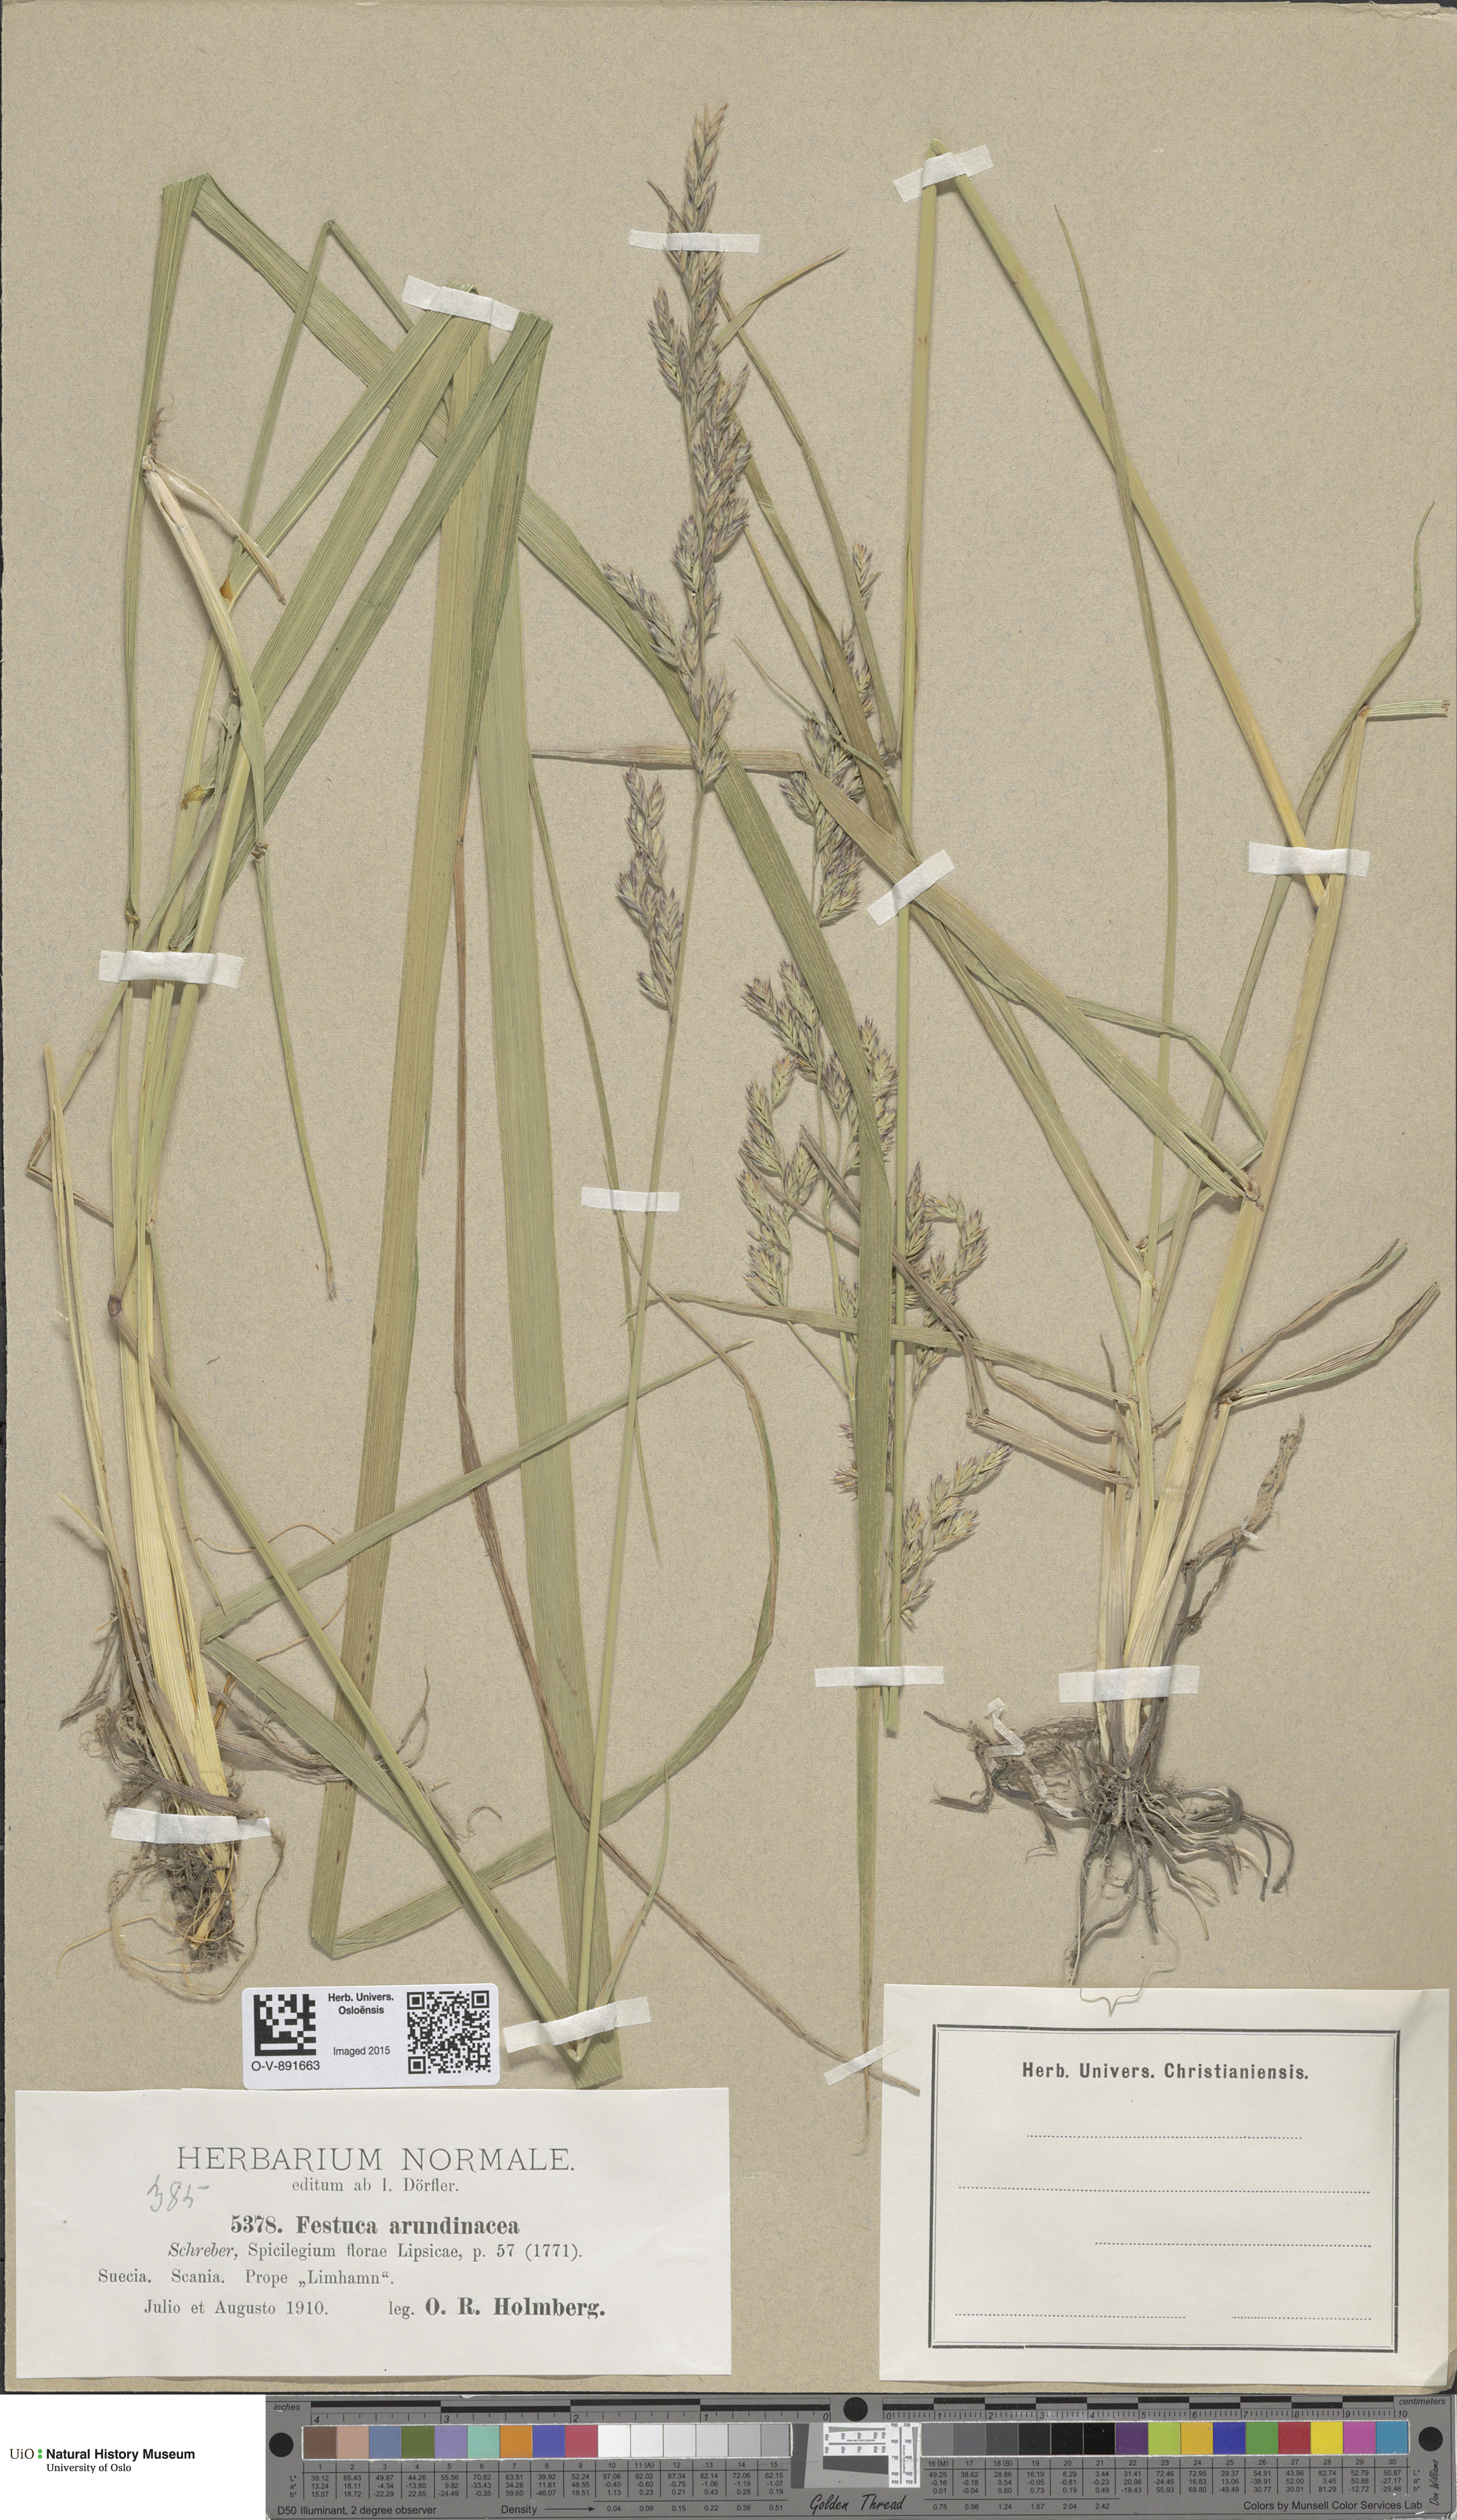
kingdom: Plantae
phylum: Tracheophyta
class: Liliopsida
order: Poales
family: Poaceae
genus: Lolium
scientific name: Lolium arundinaceum
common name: Reed fescue
